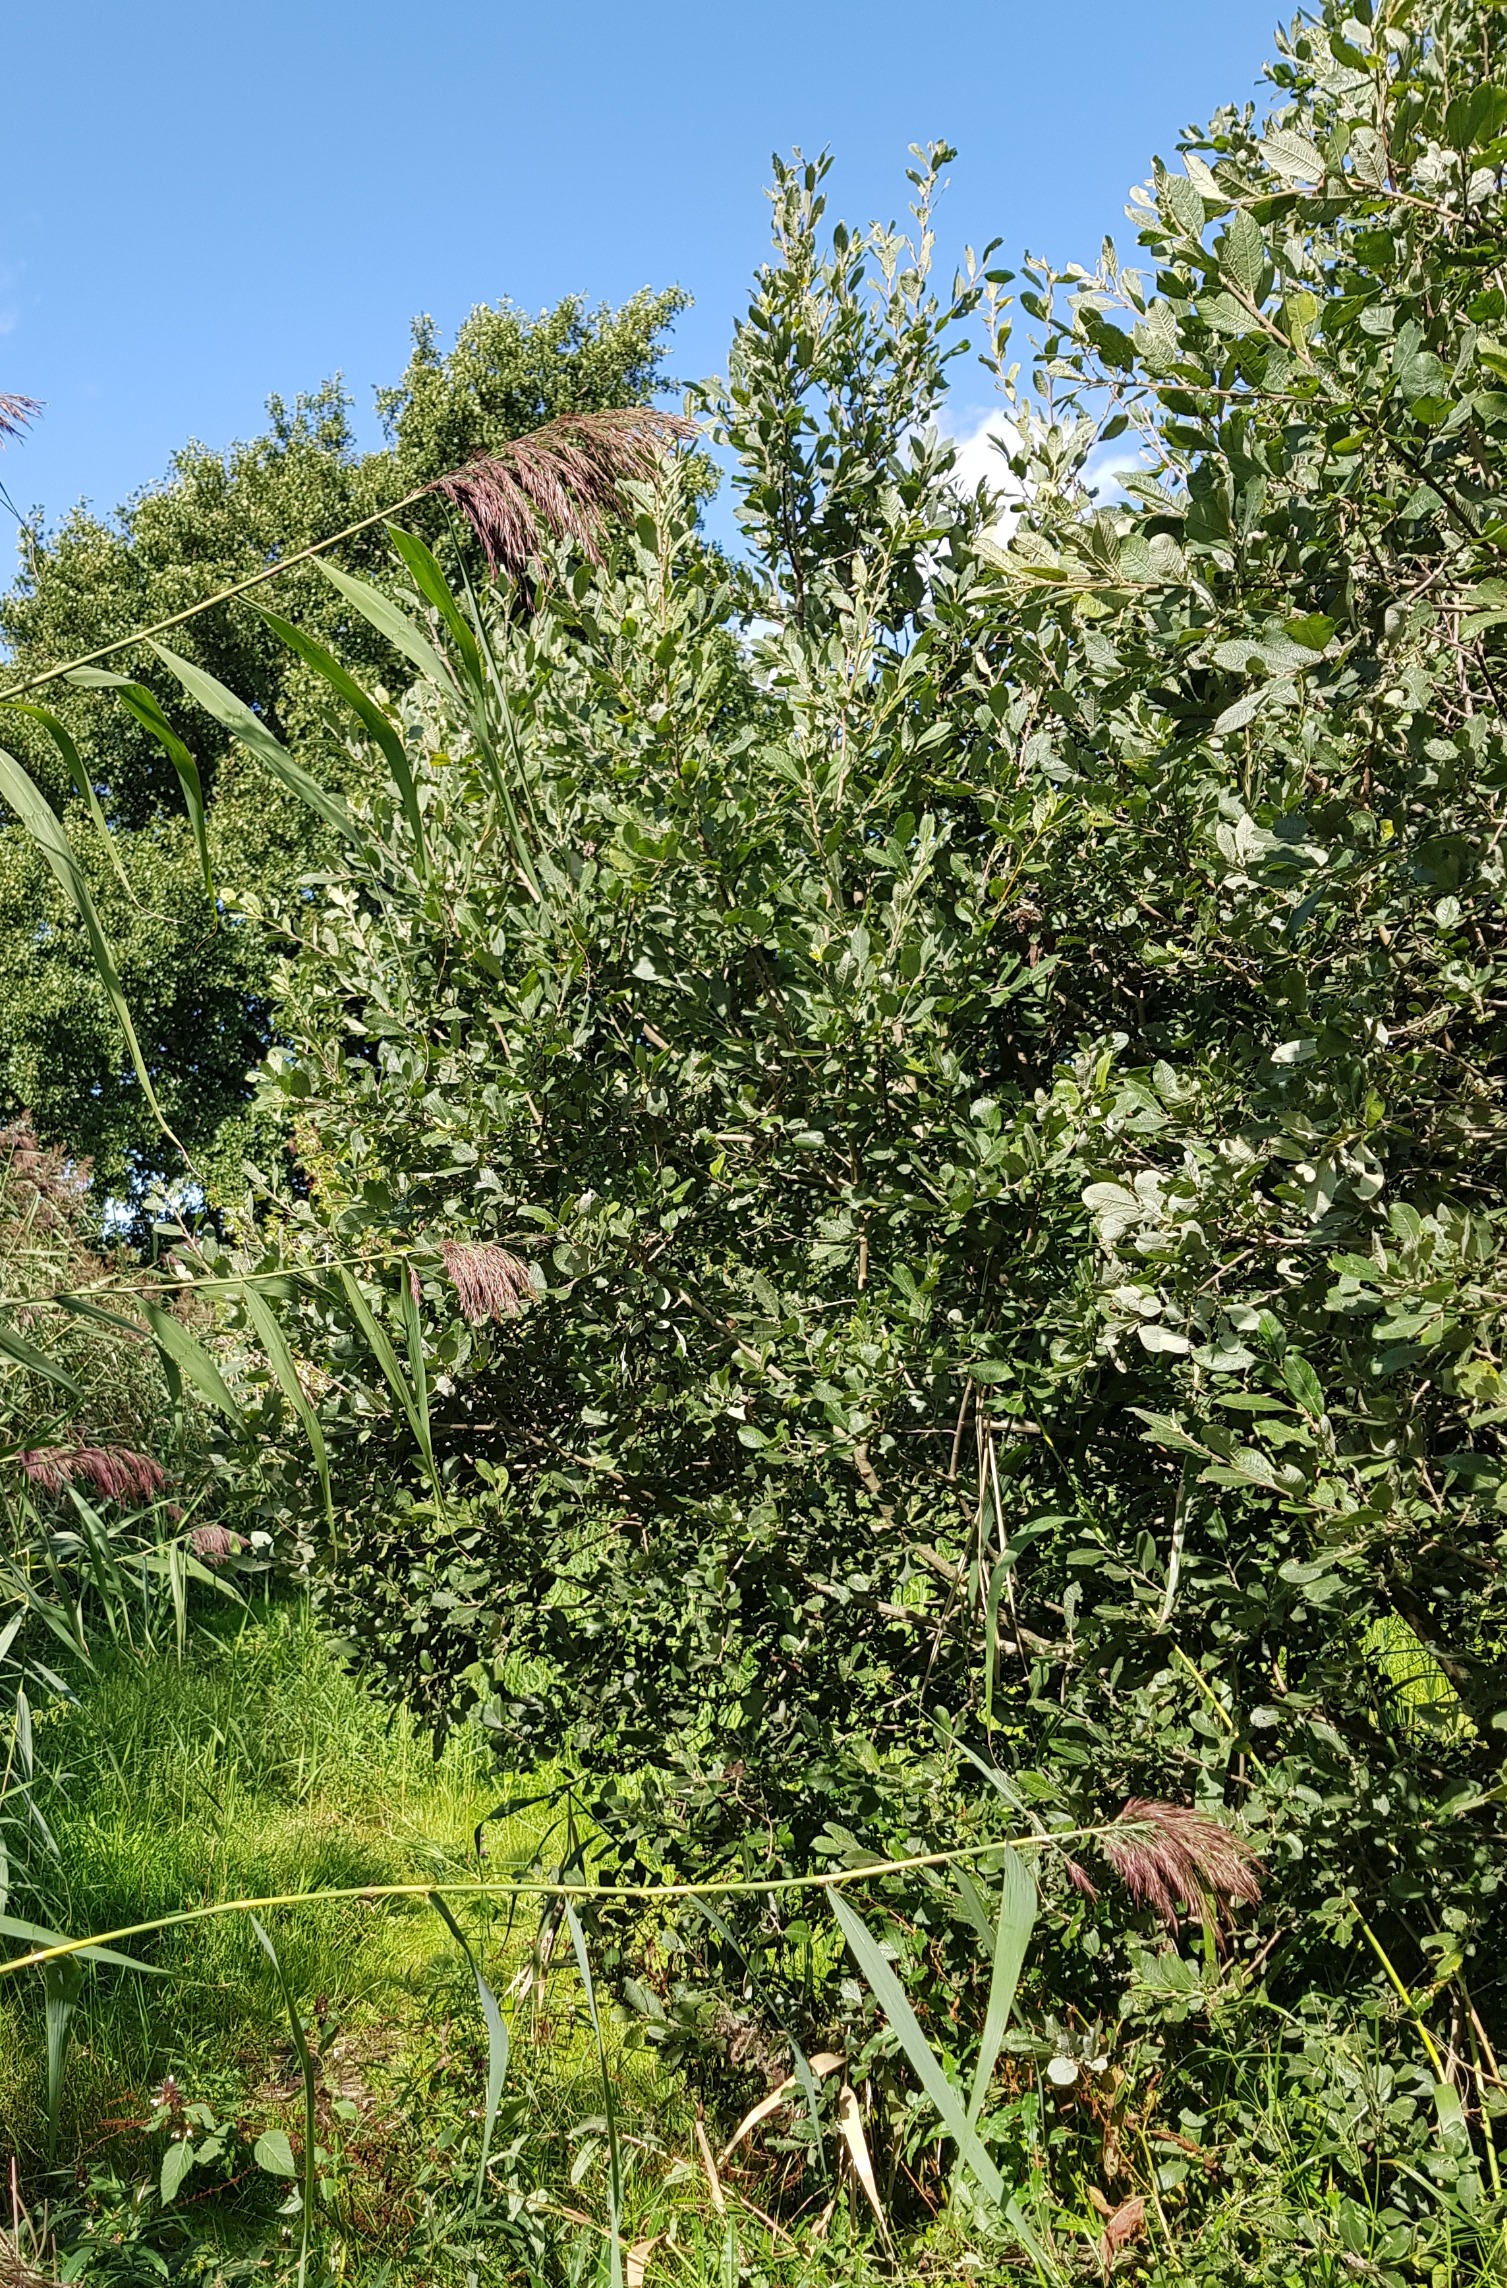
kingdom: Plantae
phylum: Tracheophyta
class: Magnoliopsida
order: Malpighiales
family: Salicaceae
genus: Salix
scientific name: Salix cinerea
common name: Grå-pil
